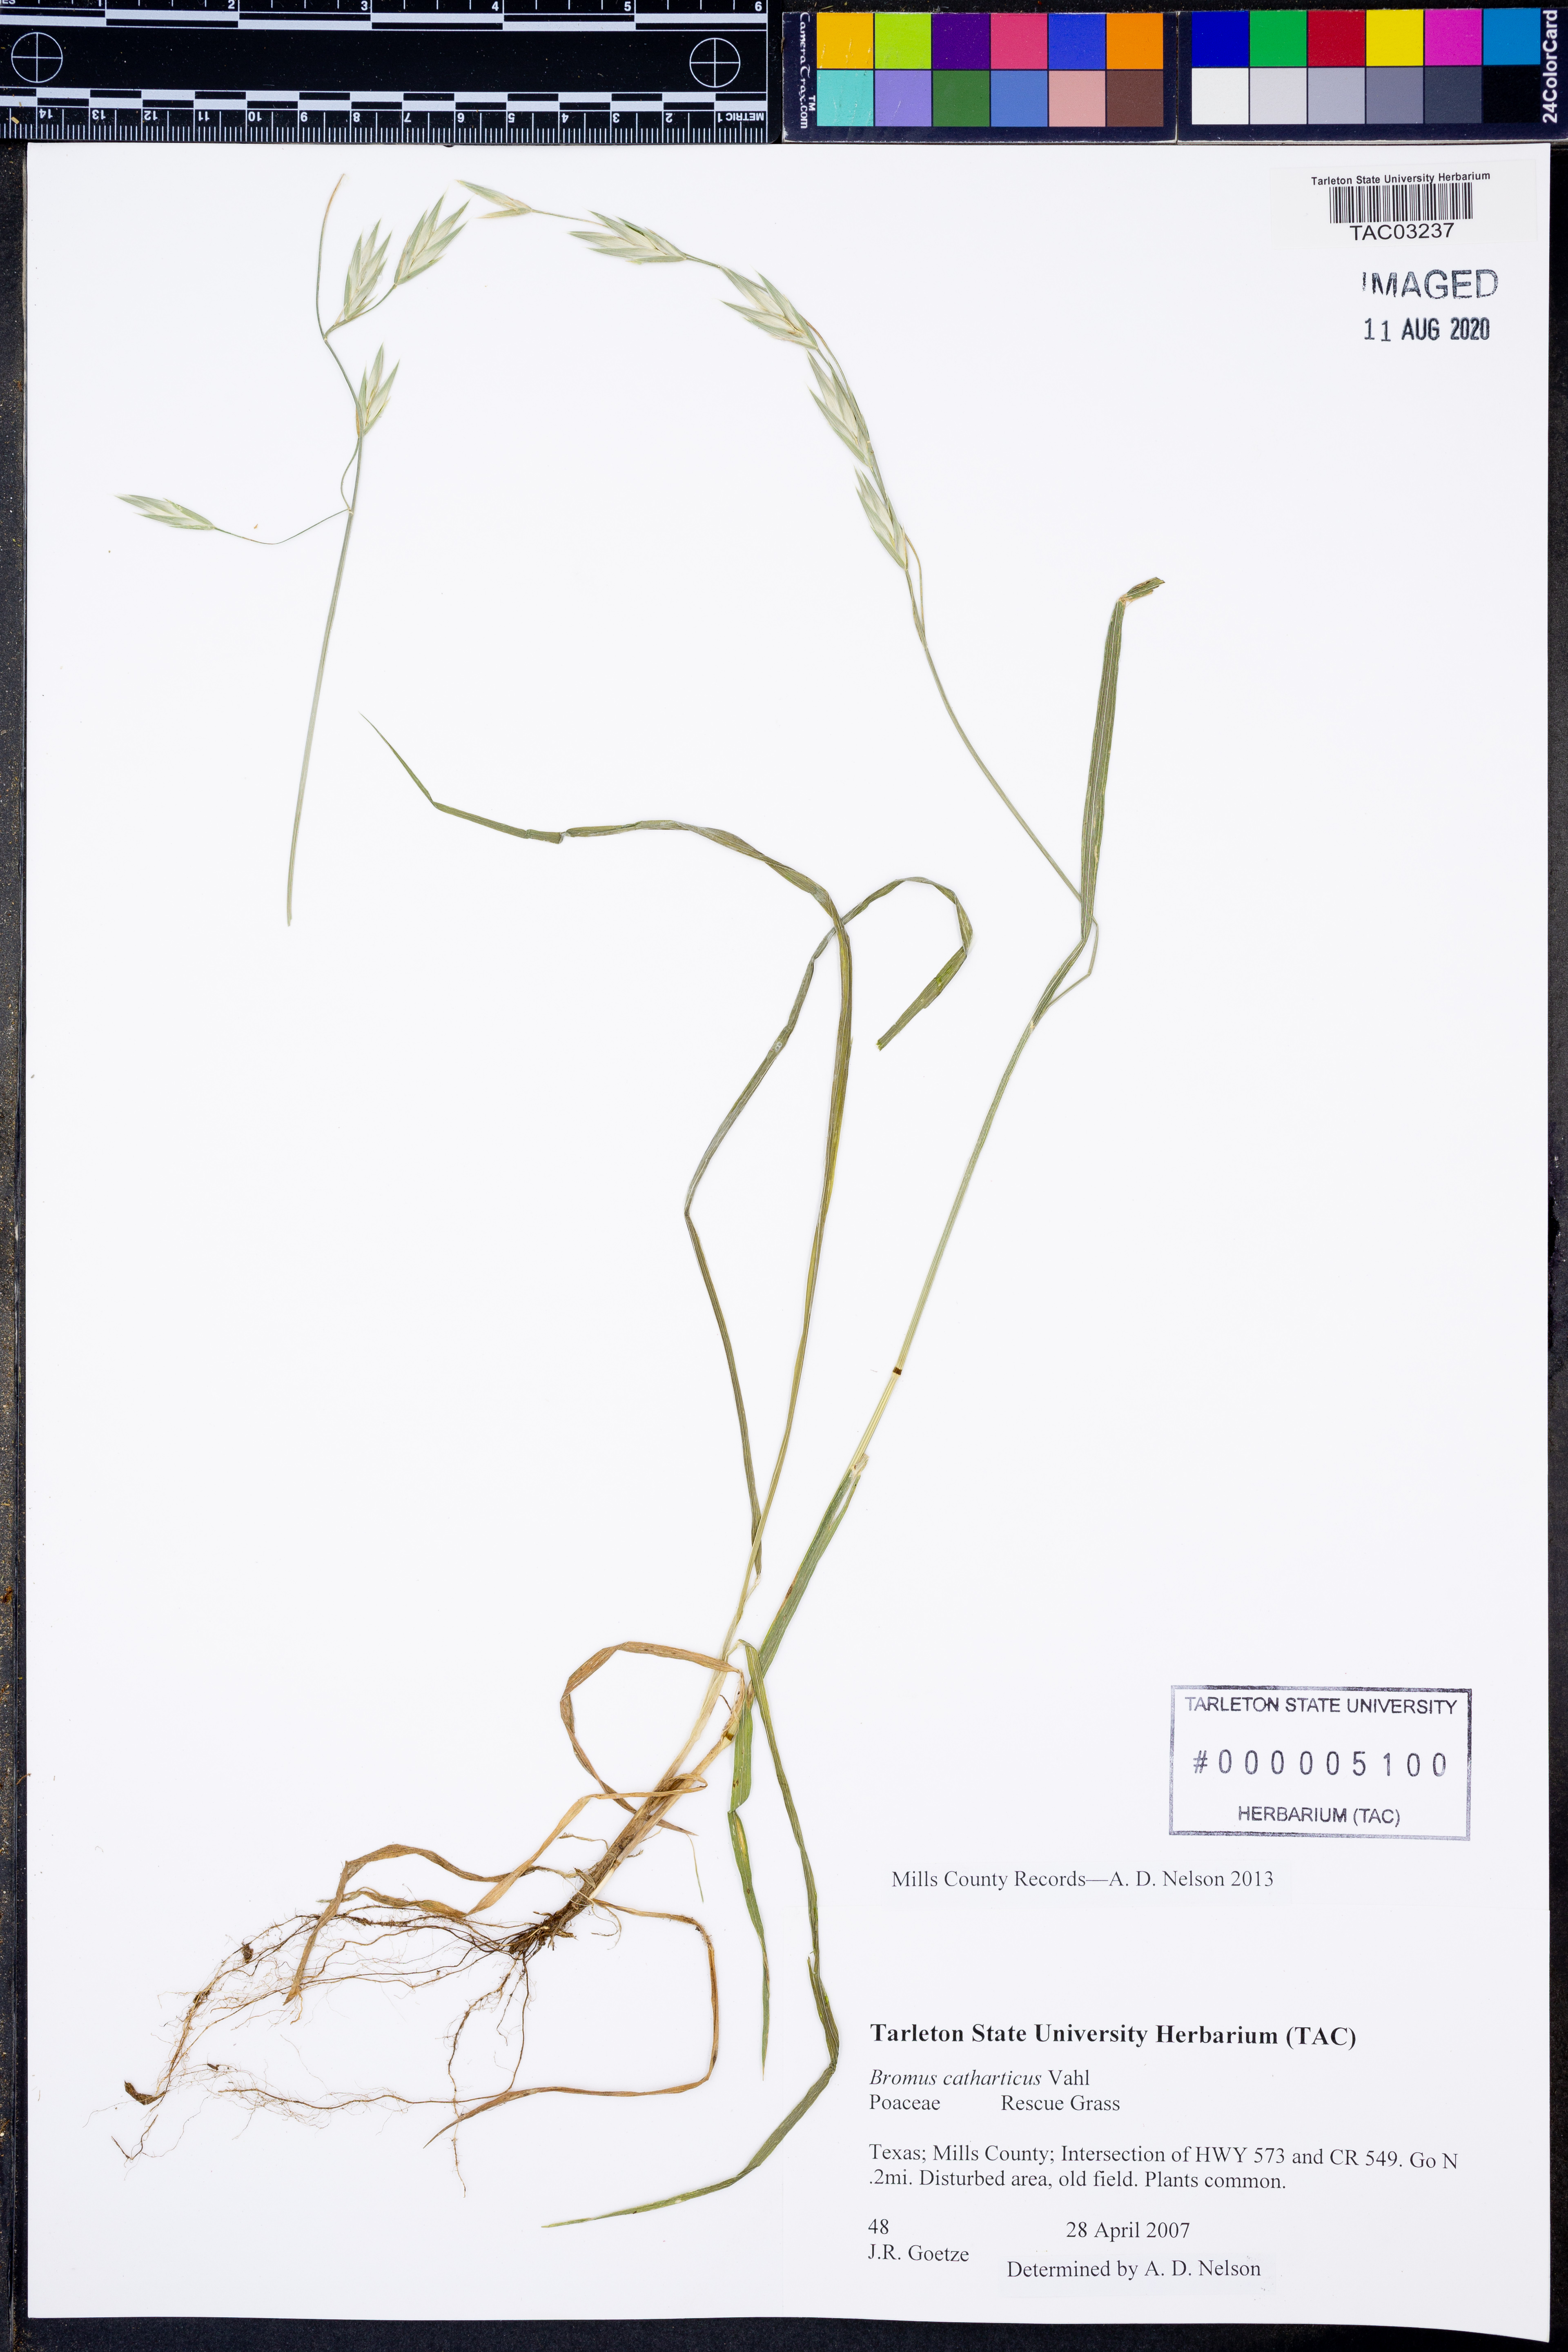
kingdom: Plantae
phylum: Tracheophyta
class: Liliopsida
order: Poales
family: Poaceae
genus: Bromus
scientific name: Bromus catharticus
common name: Rescuegrass
